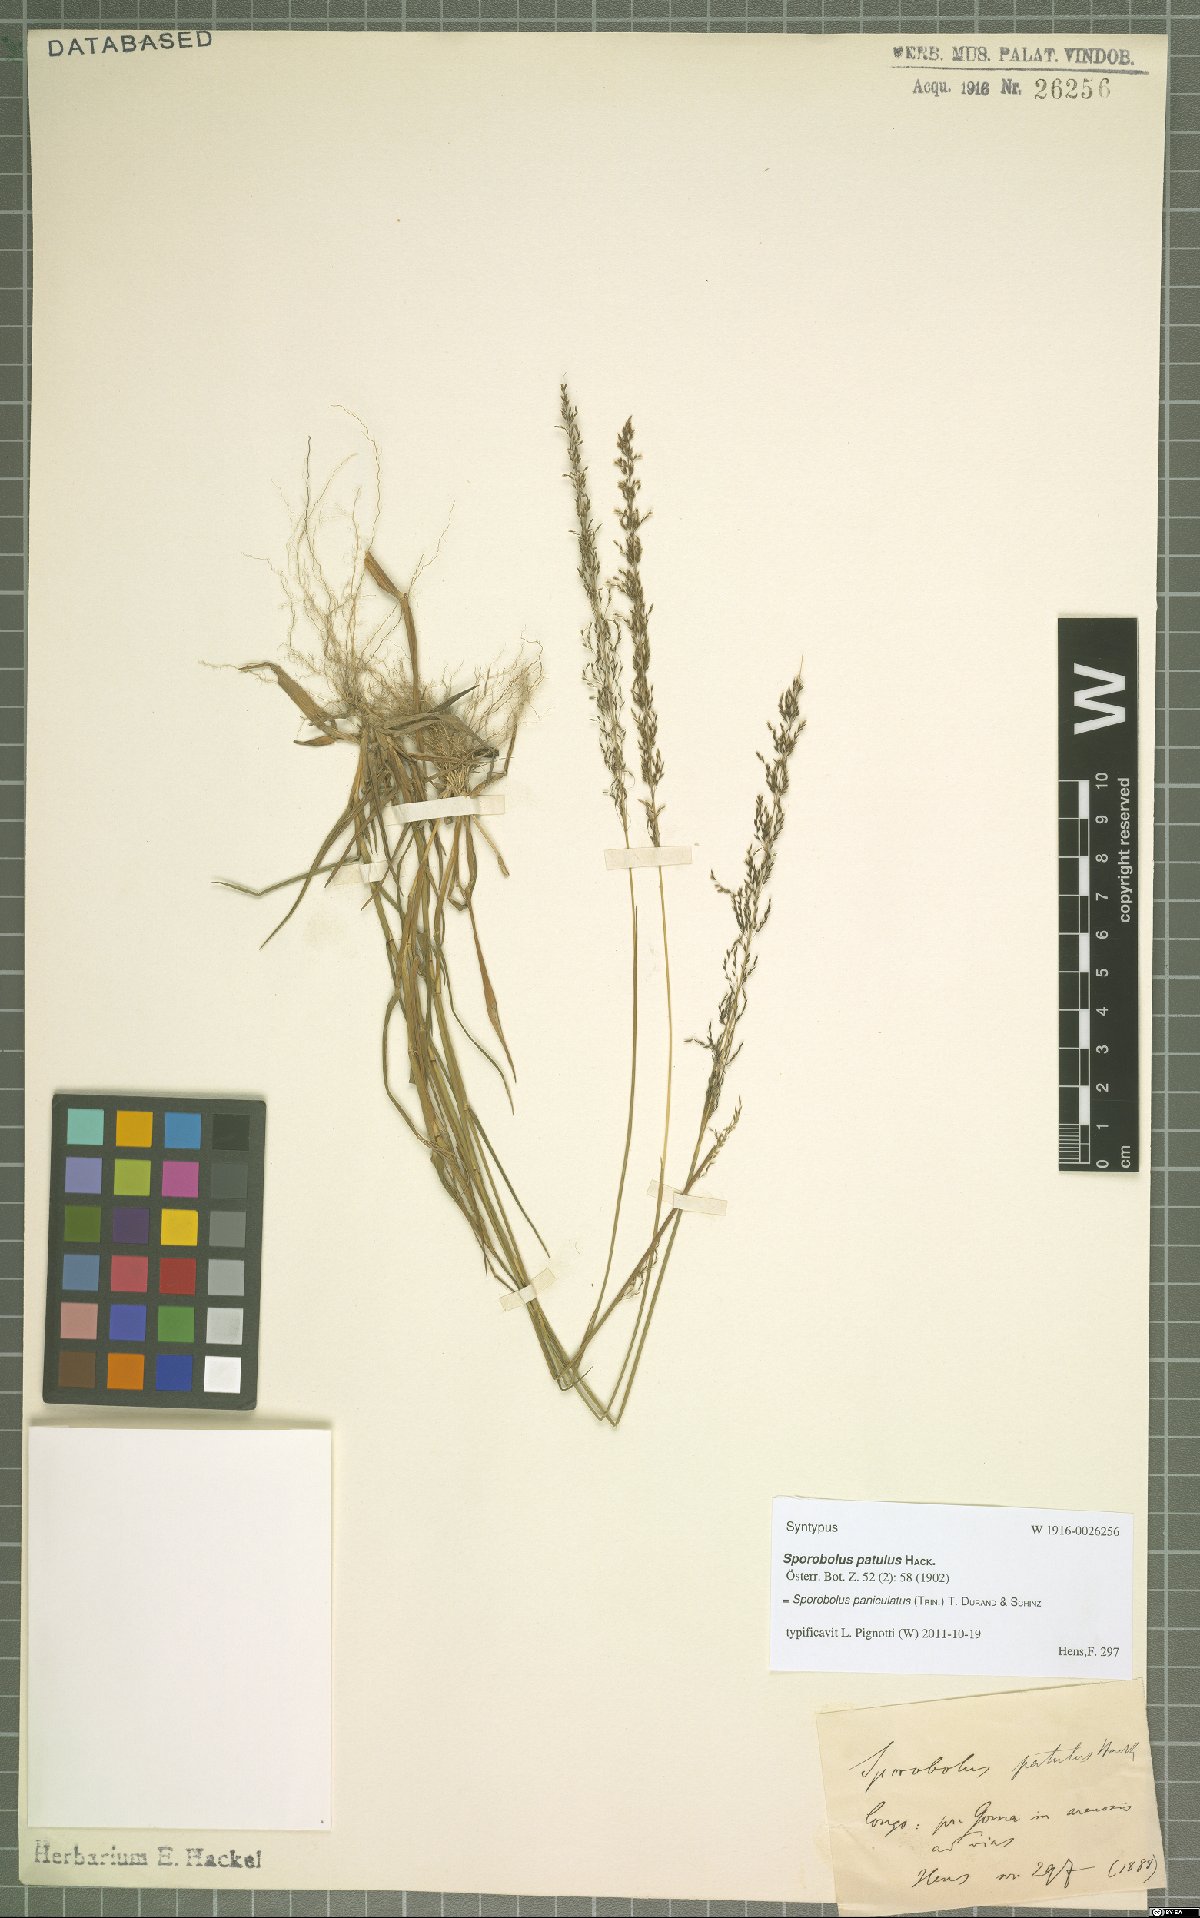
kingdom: Plantae
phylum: Tracheophyta
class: Liliopsida
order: Poales
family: Poaceae
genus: Sporobolus
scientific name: Sporobolus paniculatus
